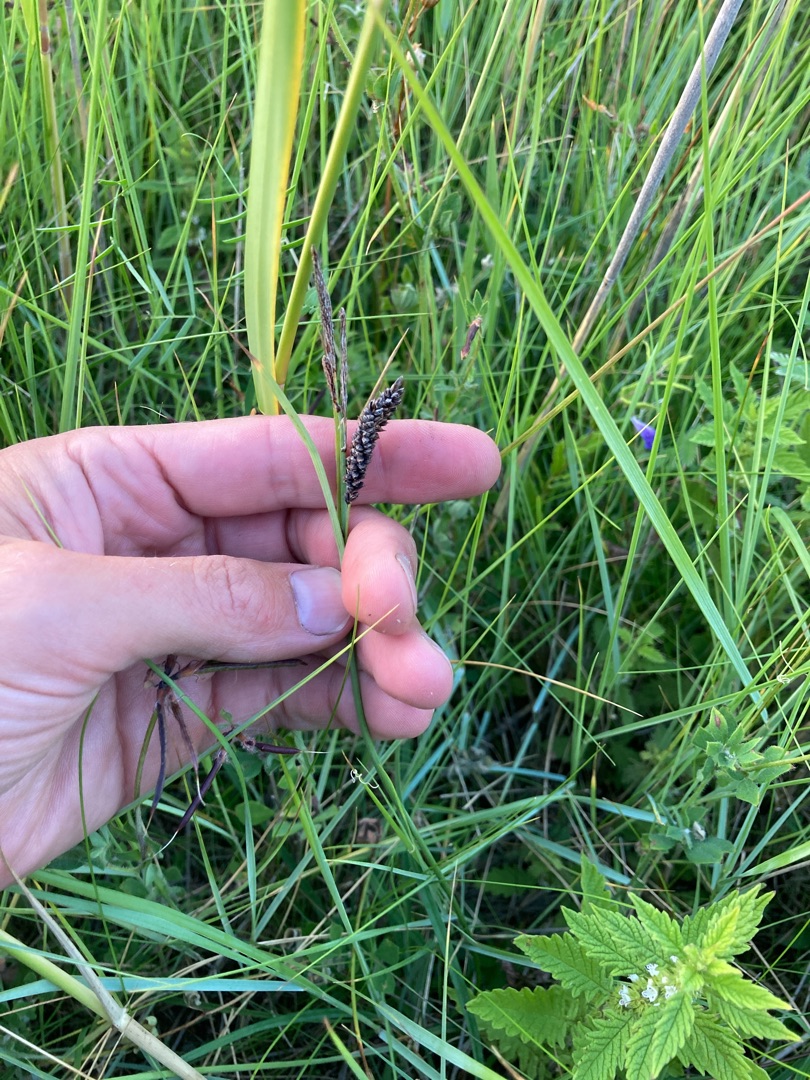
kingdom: Plantae
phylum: Tracheophyta
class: Liliopsida
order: Poales
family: Cyperaceae
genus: Carex
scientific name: Carex flacca
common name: Blågrøn star
